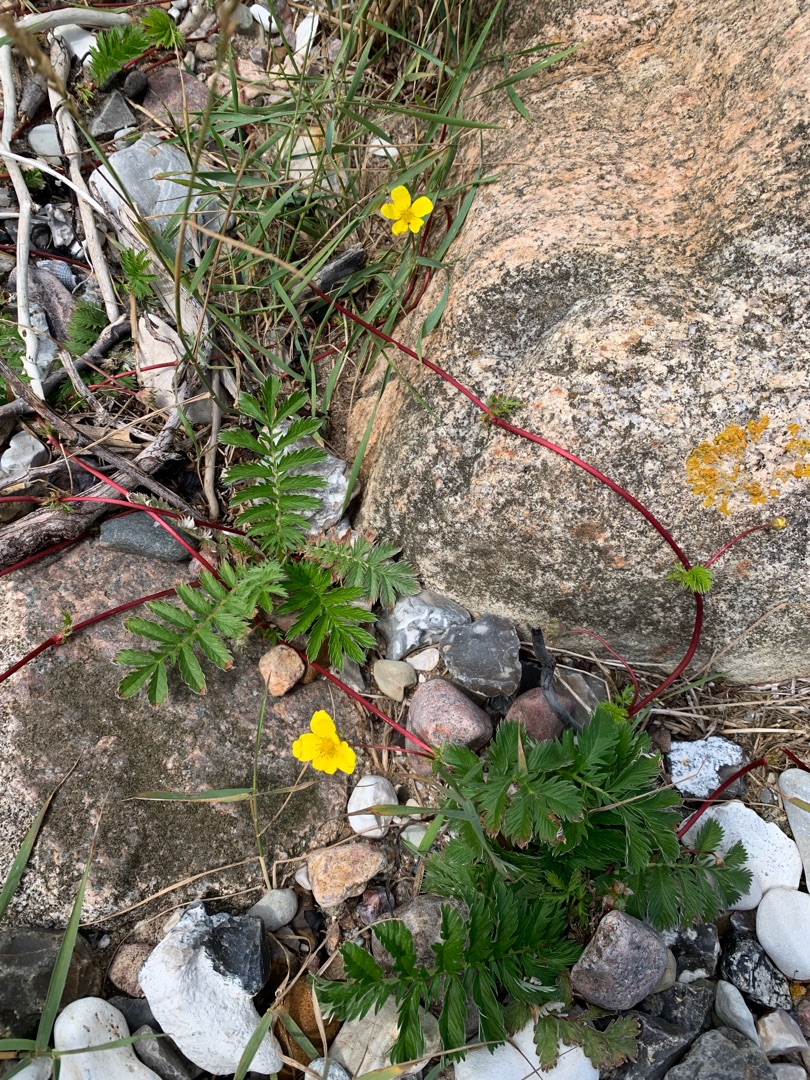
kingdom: Plantae
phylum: Tracheophyta
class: Magnoliopsida
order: Rosales
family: Rosaceae
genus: Argentina
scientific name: Argentina
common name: Gåsepotentilslægten
